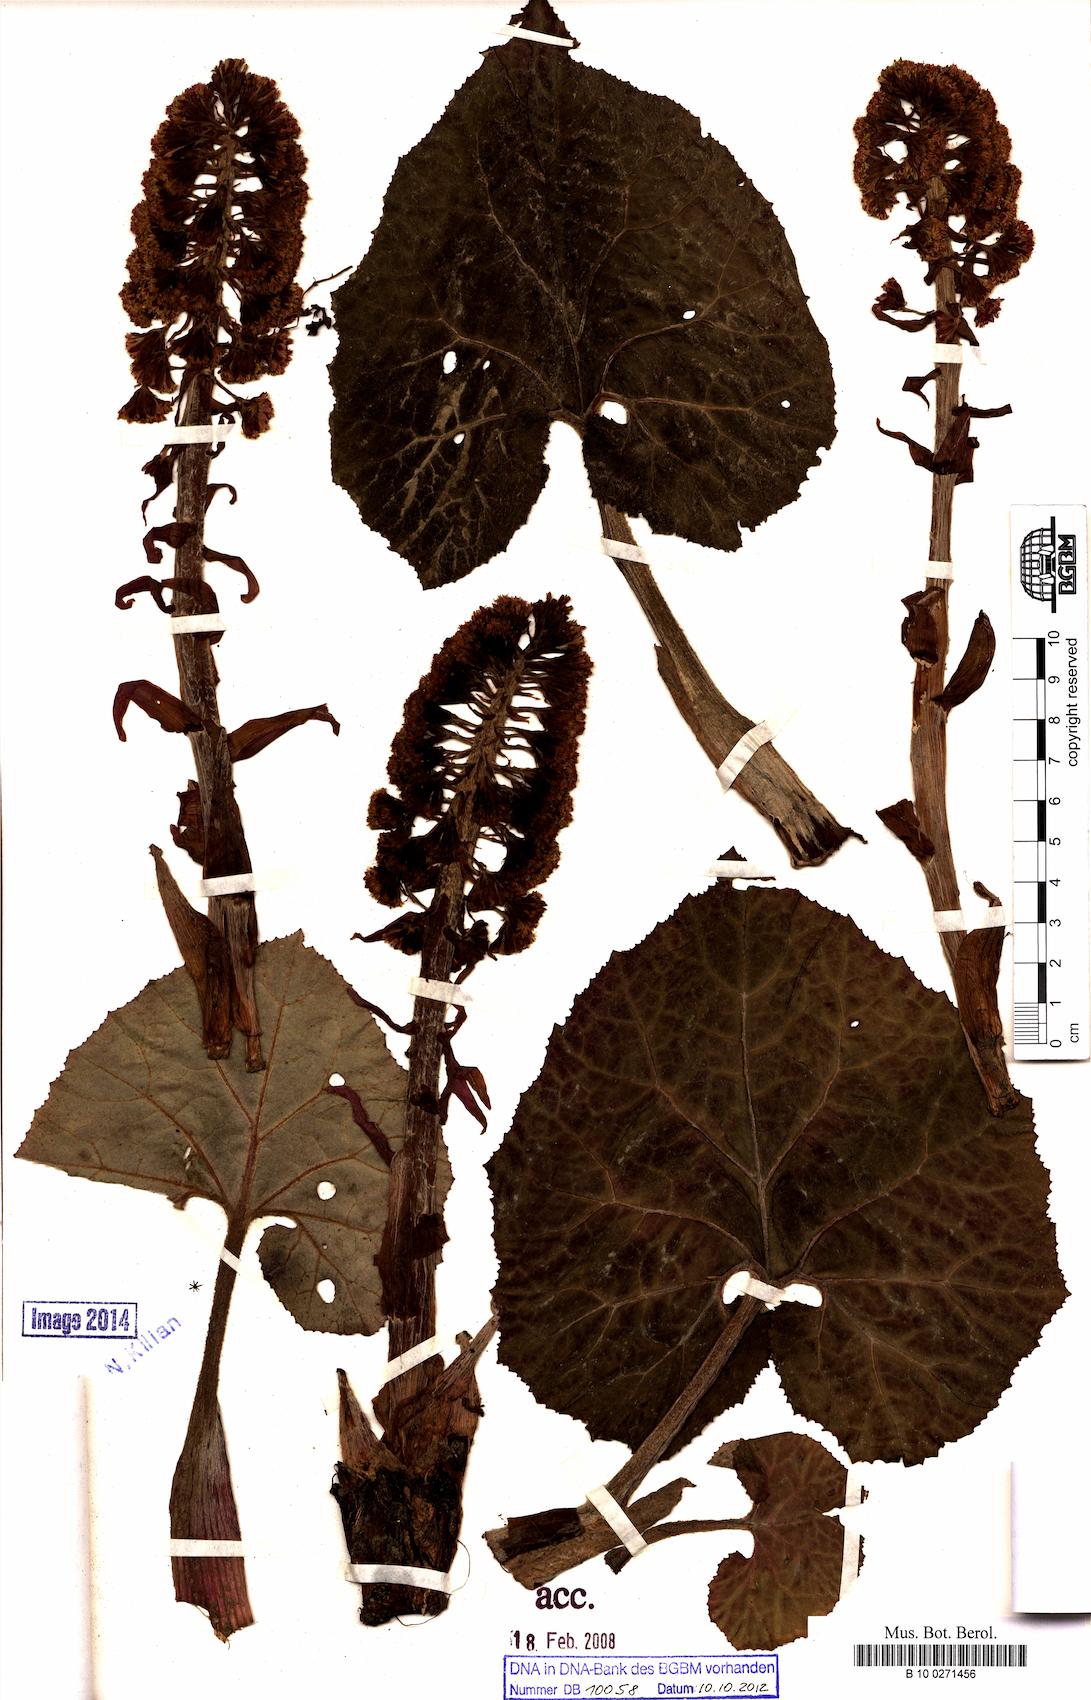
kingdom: Plantae
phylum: Tracheophyta
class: Magnoliopsida
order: Asterales
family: Asteraceae
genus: Petasites
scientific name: Petasites hybridus
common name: Butterbur
